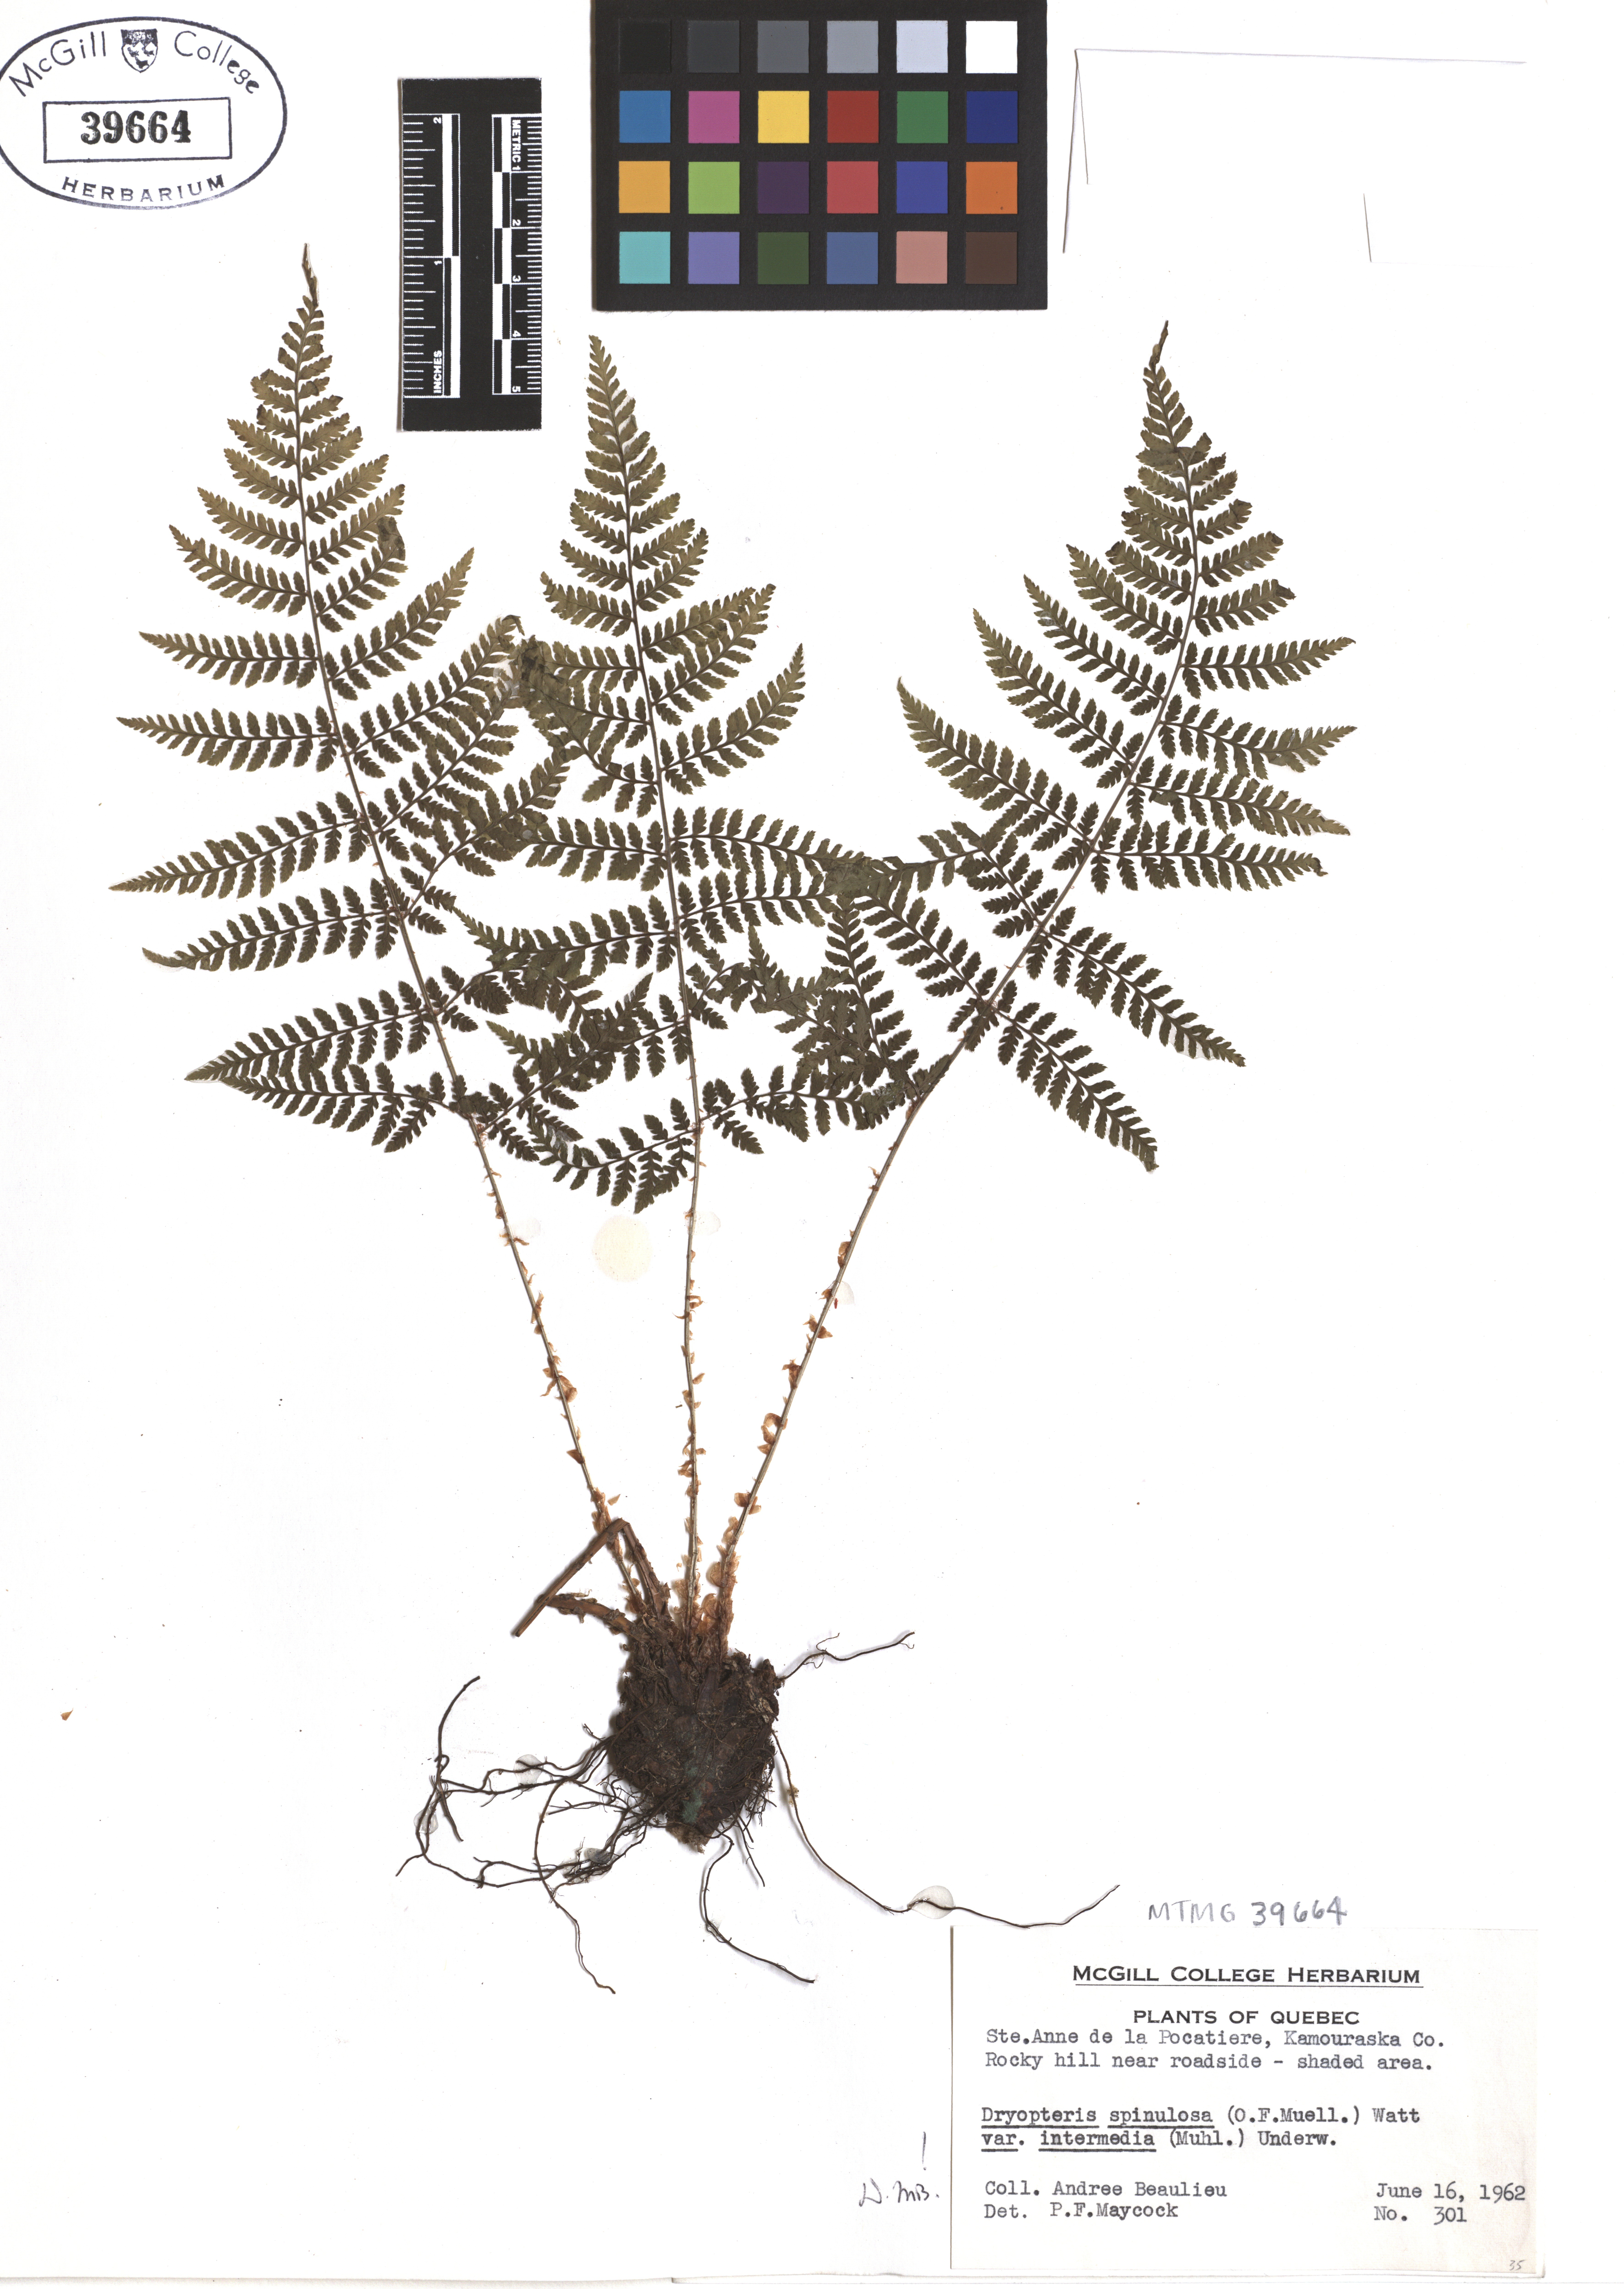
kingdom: Plantae
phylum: Tracheophyta
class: Polypodiopsida
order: Polypodiales
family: Dryopteridaceae
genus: Dryopteris
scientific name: Dryopteris intermedia
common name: Evergreen wood fern
